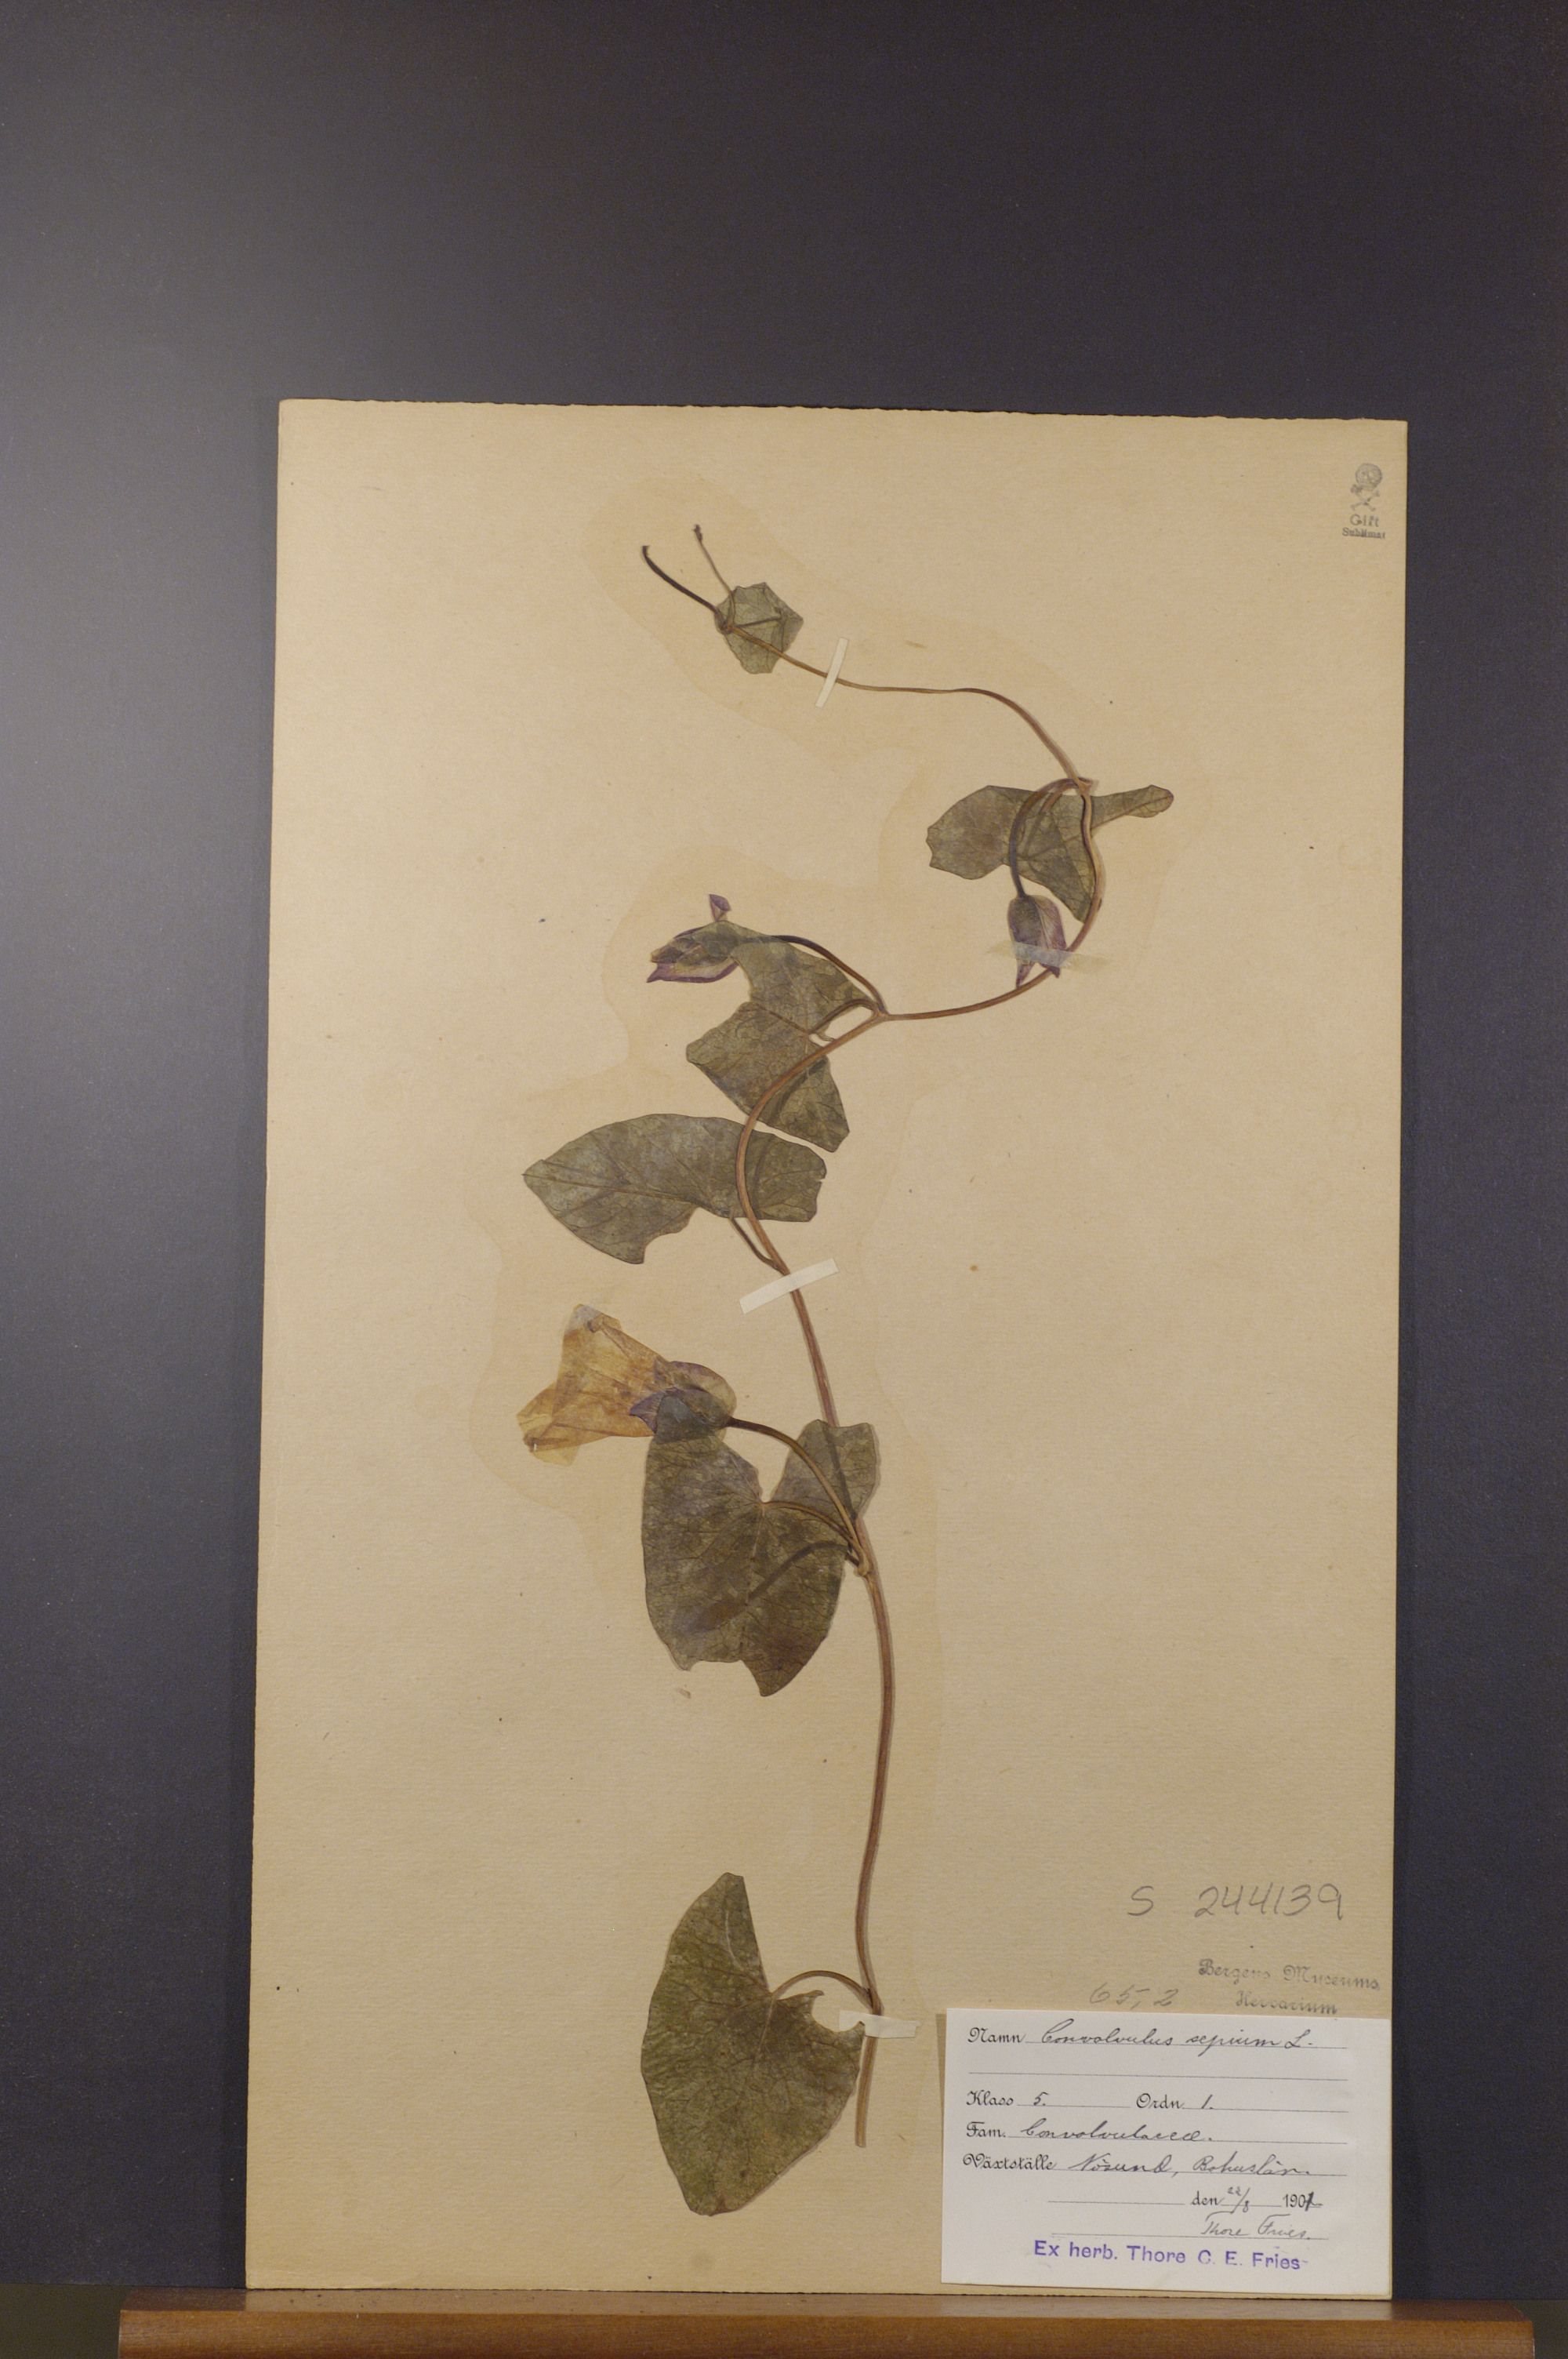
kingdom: Plantae
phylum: Tracheophyta
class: Magnoliopsida
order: Solanales
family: Convolvulaceae
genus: Calystegia
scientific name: Calystegia sepium
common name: Hedge bindweed
